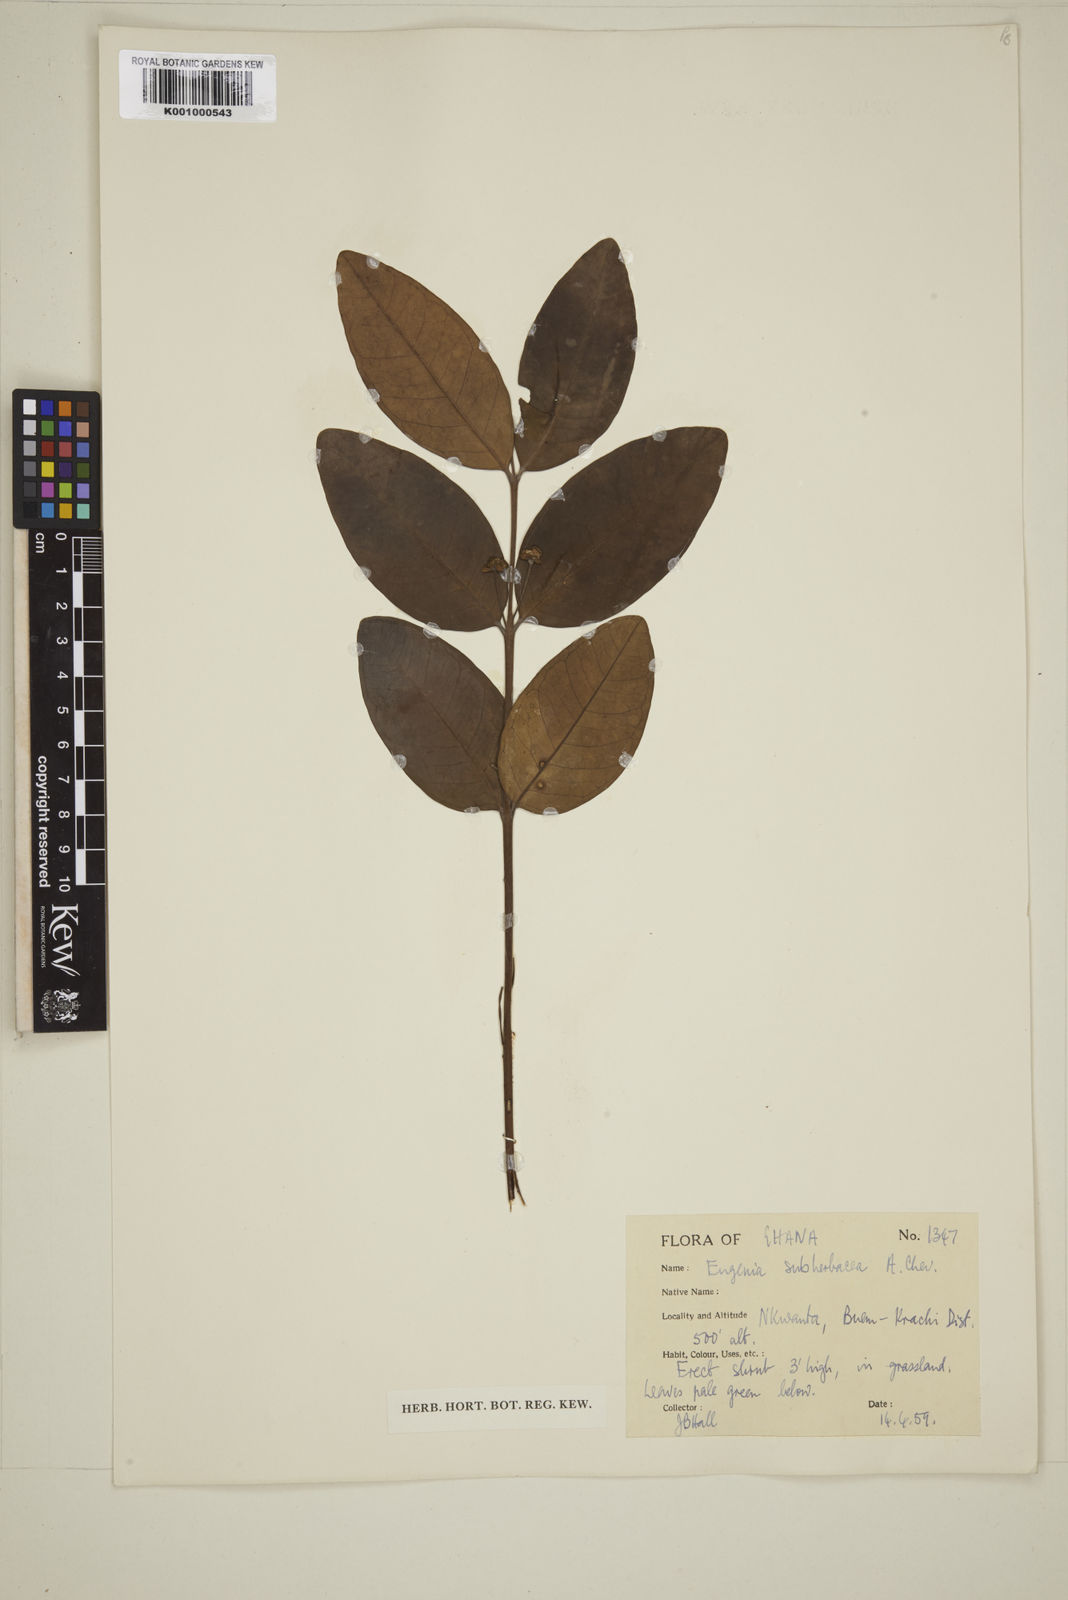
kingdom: Plantae
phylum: Tracheophyta
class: Magnoliopsida
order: Myrtales
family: Myrtaceae
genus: Eugenia
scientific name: Eugenia subherbacea
